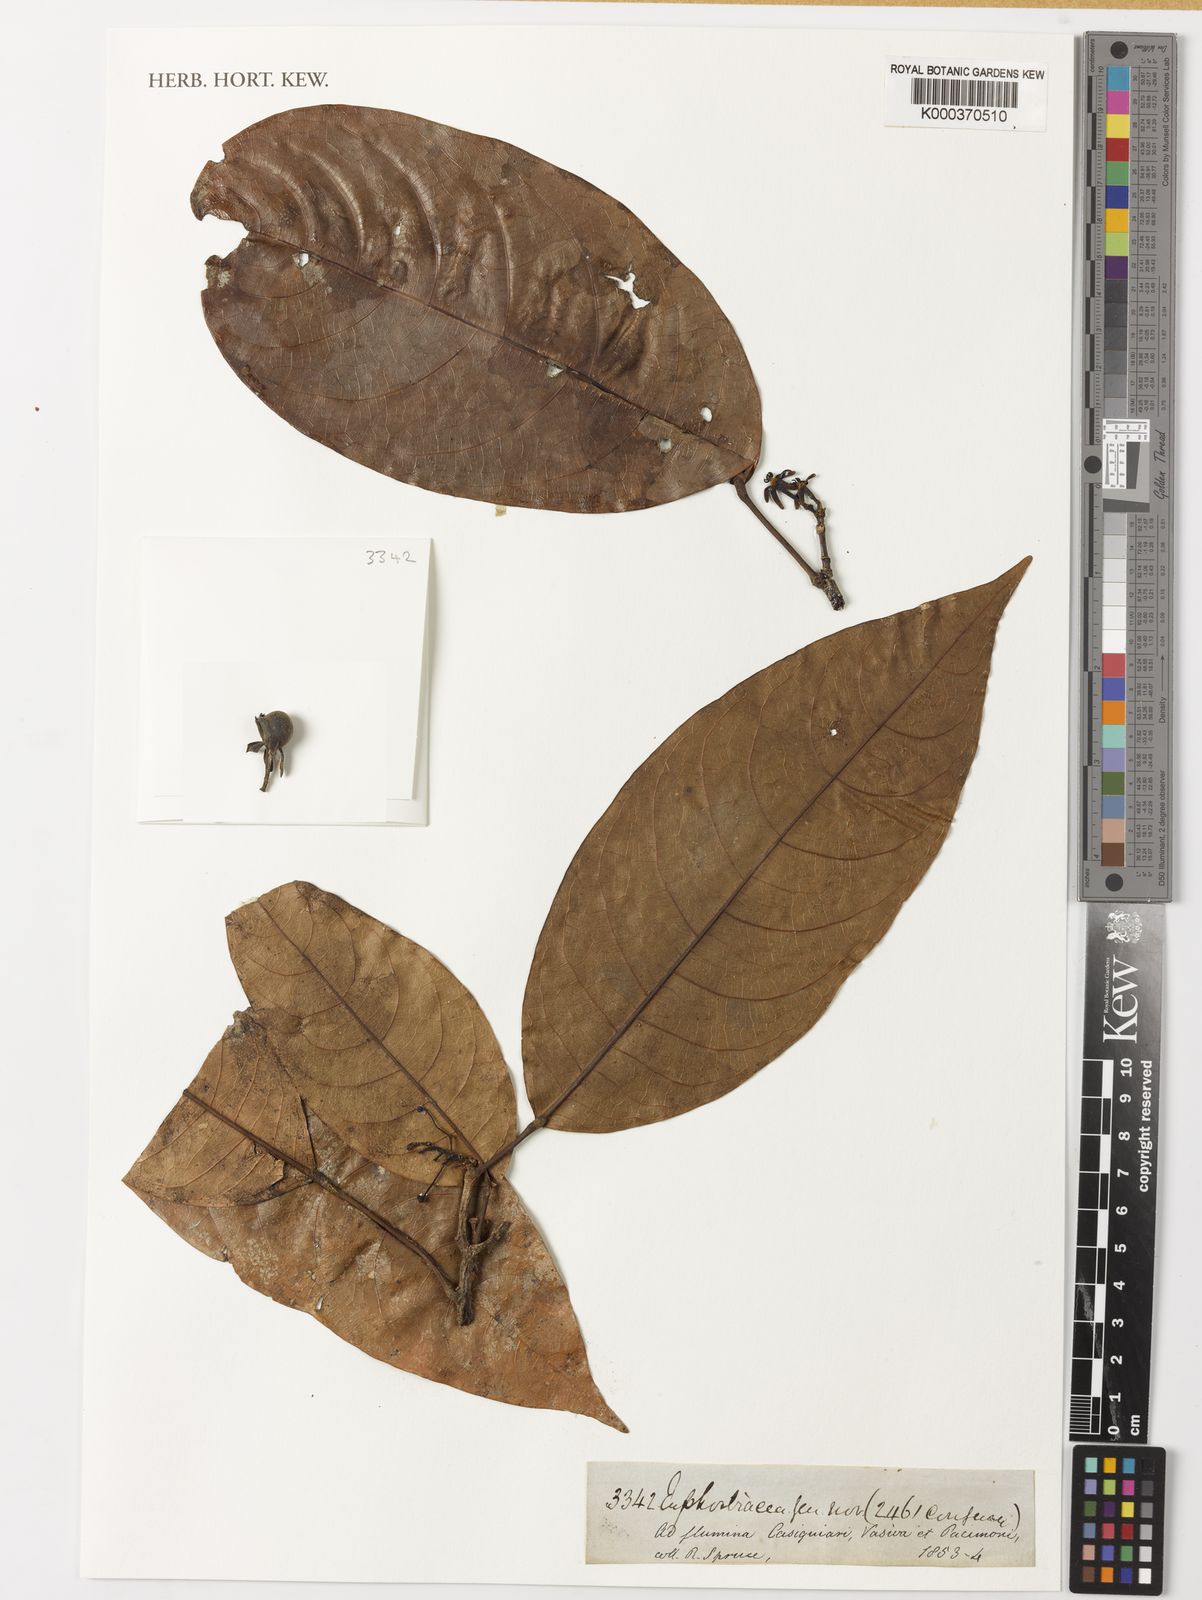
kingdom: Plantae
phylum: Tracheophyta
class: Magnoliopsida
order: Malpighiales
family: Euphorbiaceae
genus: Sagotia
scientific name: Sagotia racemosa
